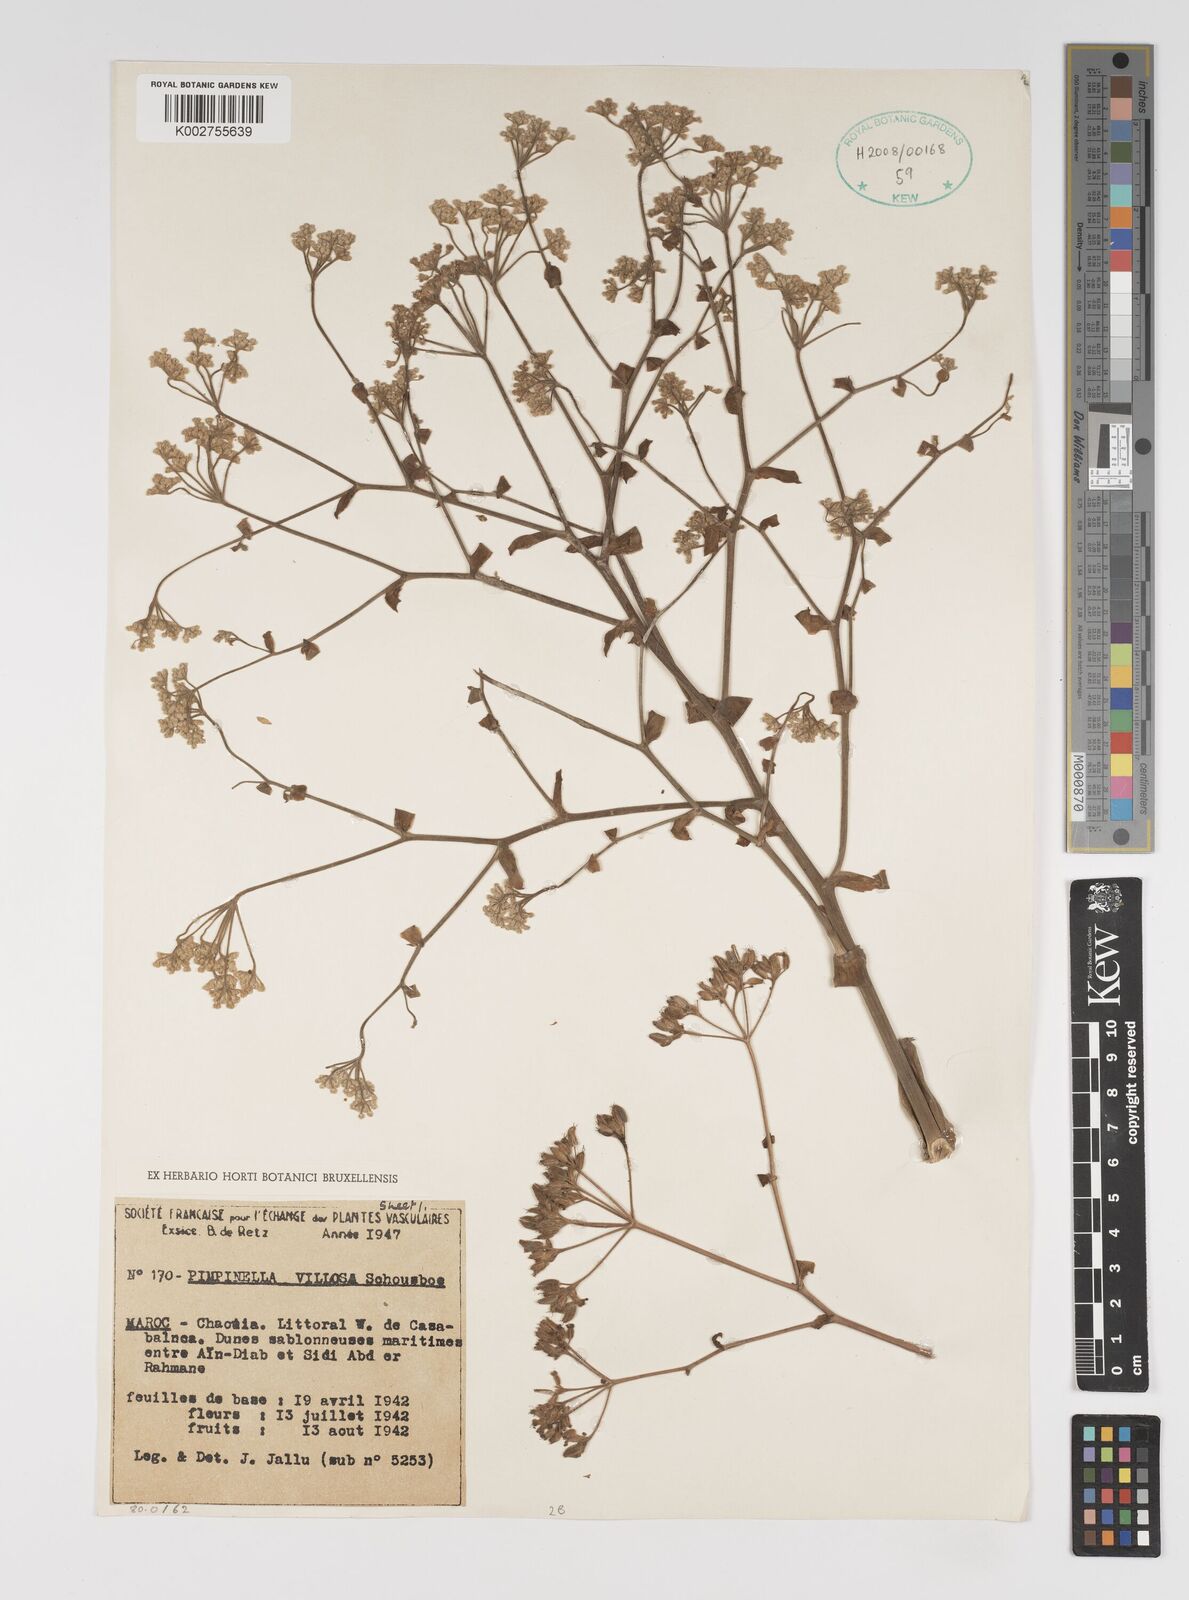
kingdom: Plantae
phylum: Tracheophyta
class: Magnoliopsida
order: Apiales
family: Apiaceae
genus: Pimpinella
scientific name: Pimpinella villosa
